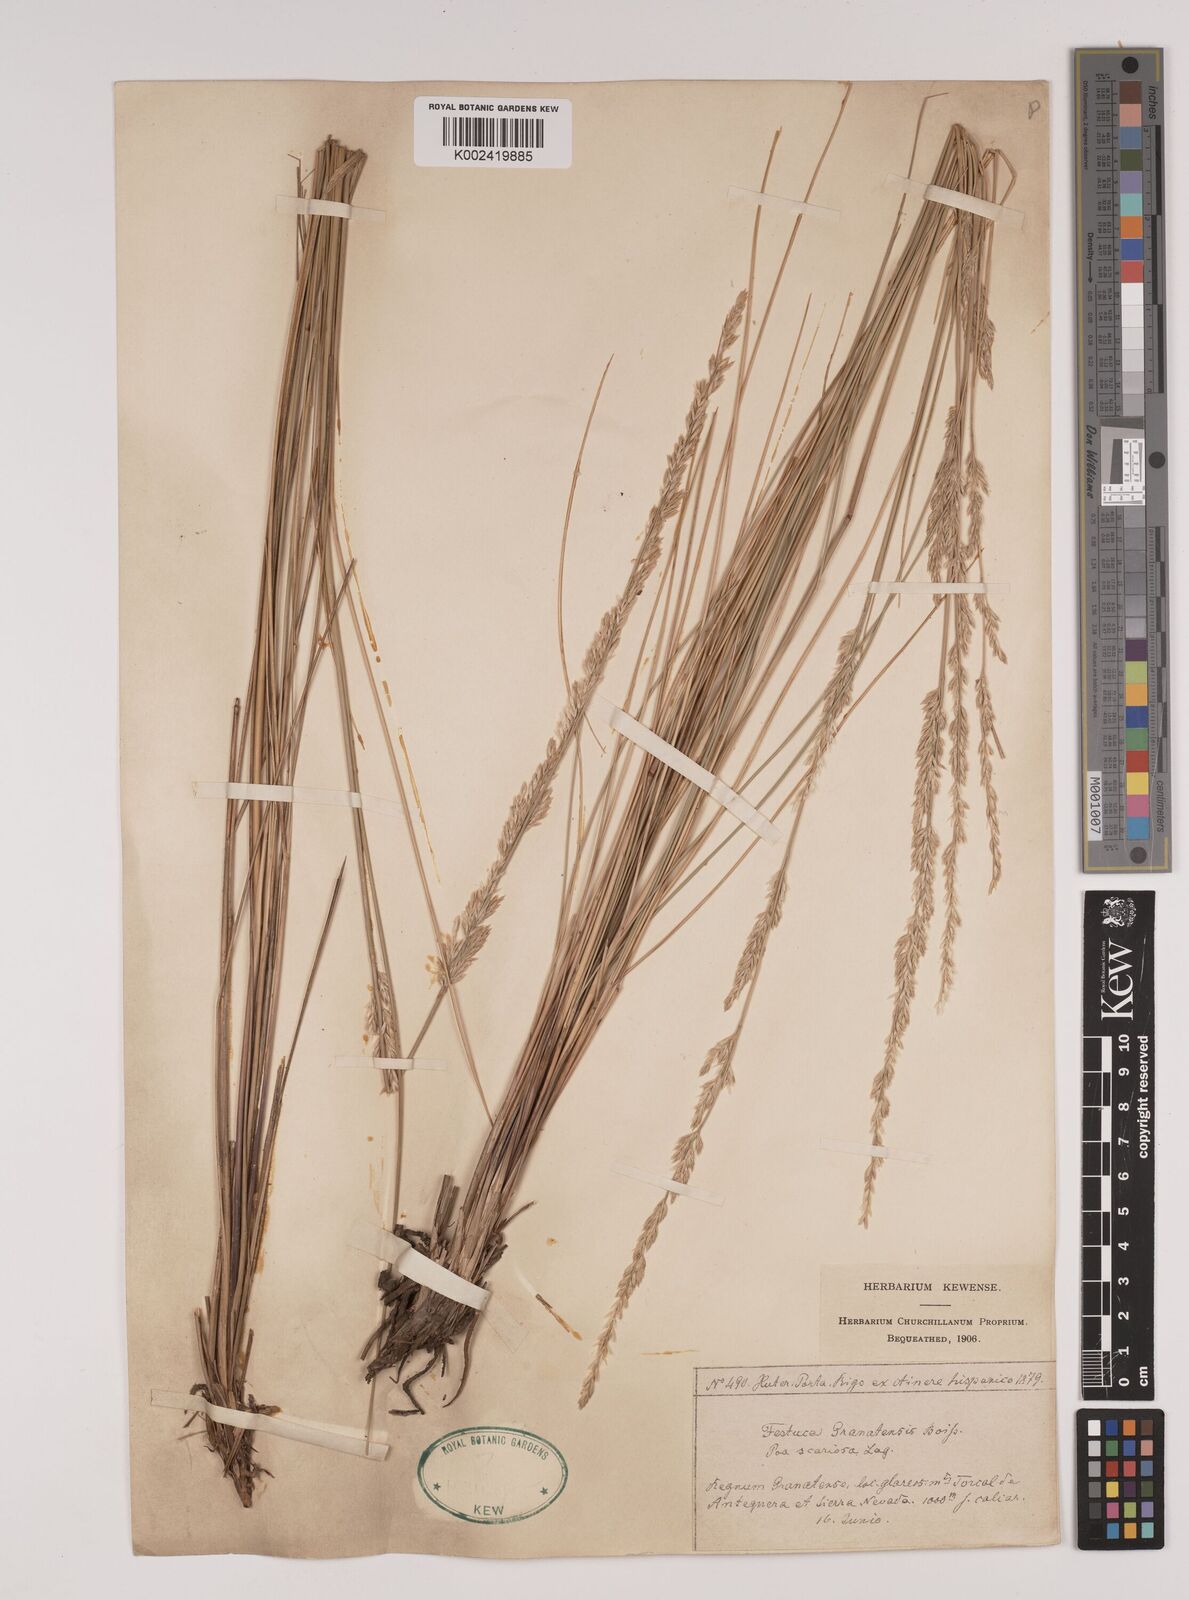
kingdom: Plantae
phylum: Tracheophyta
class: Liliopsida
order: Poales
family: Poaceae
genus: Festuca
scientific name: Festuca scariosa
